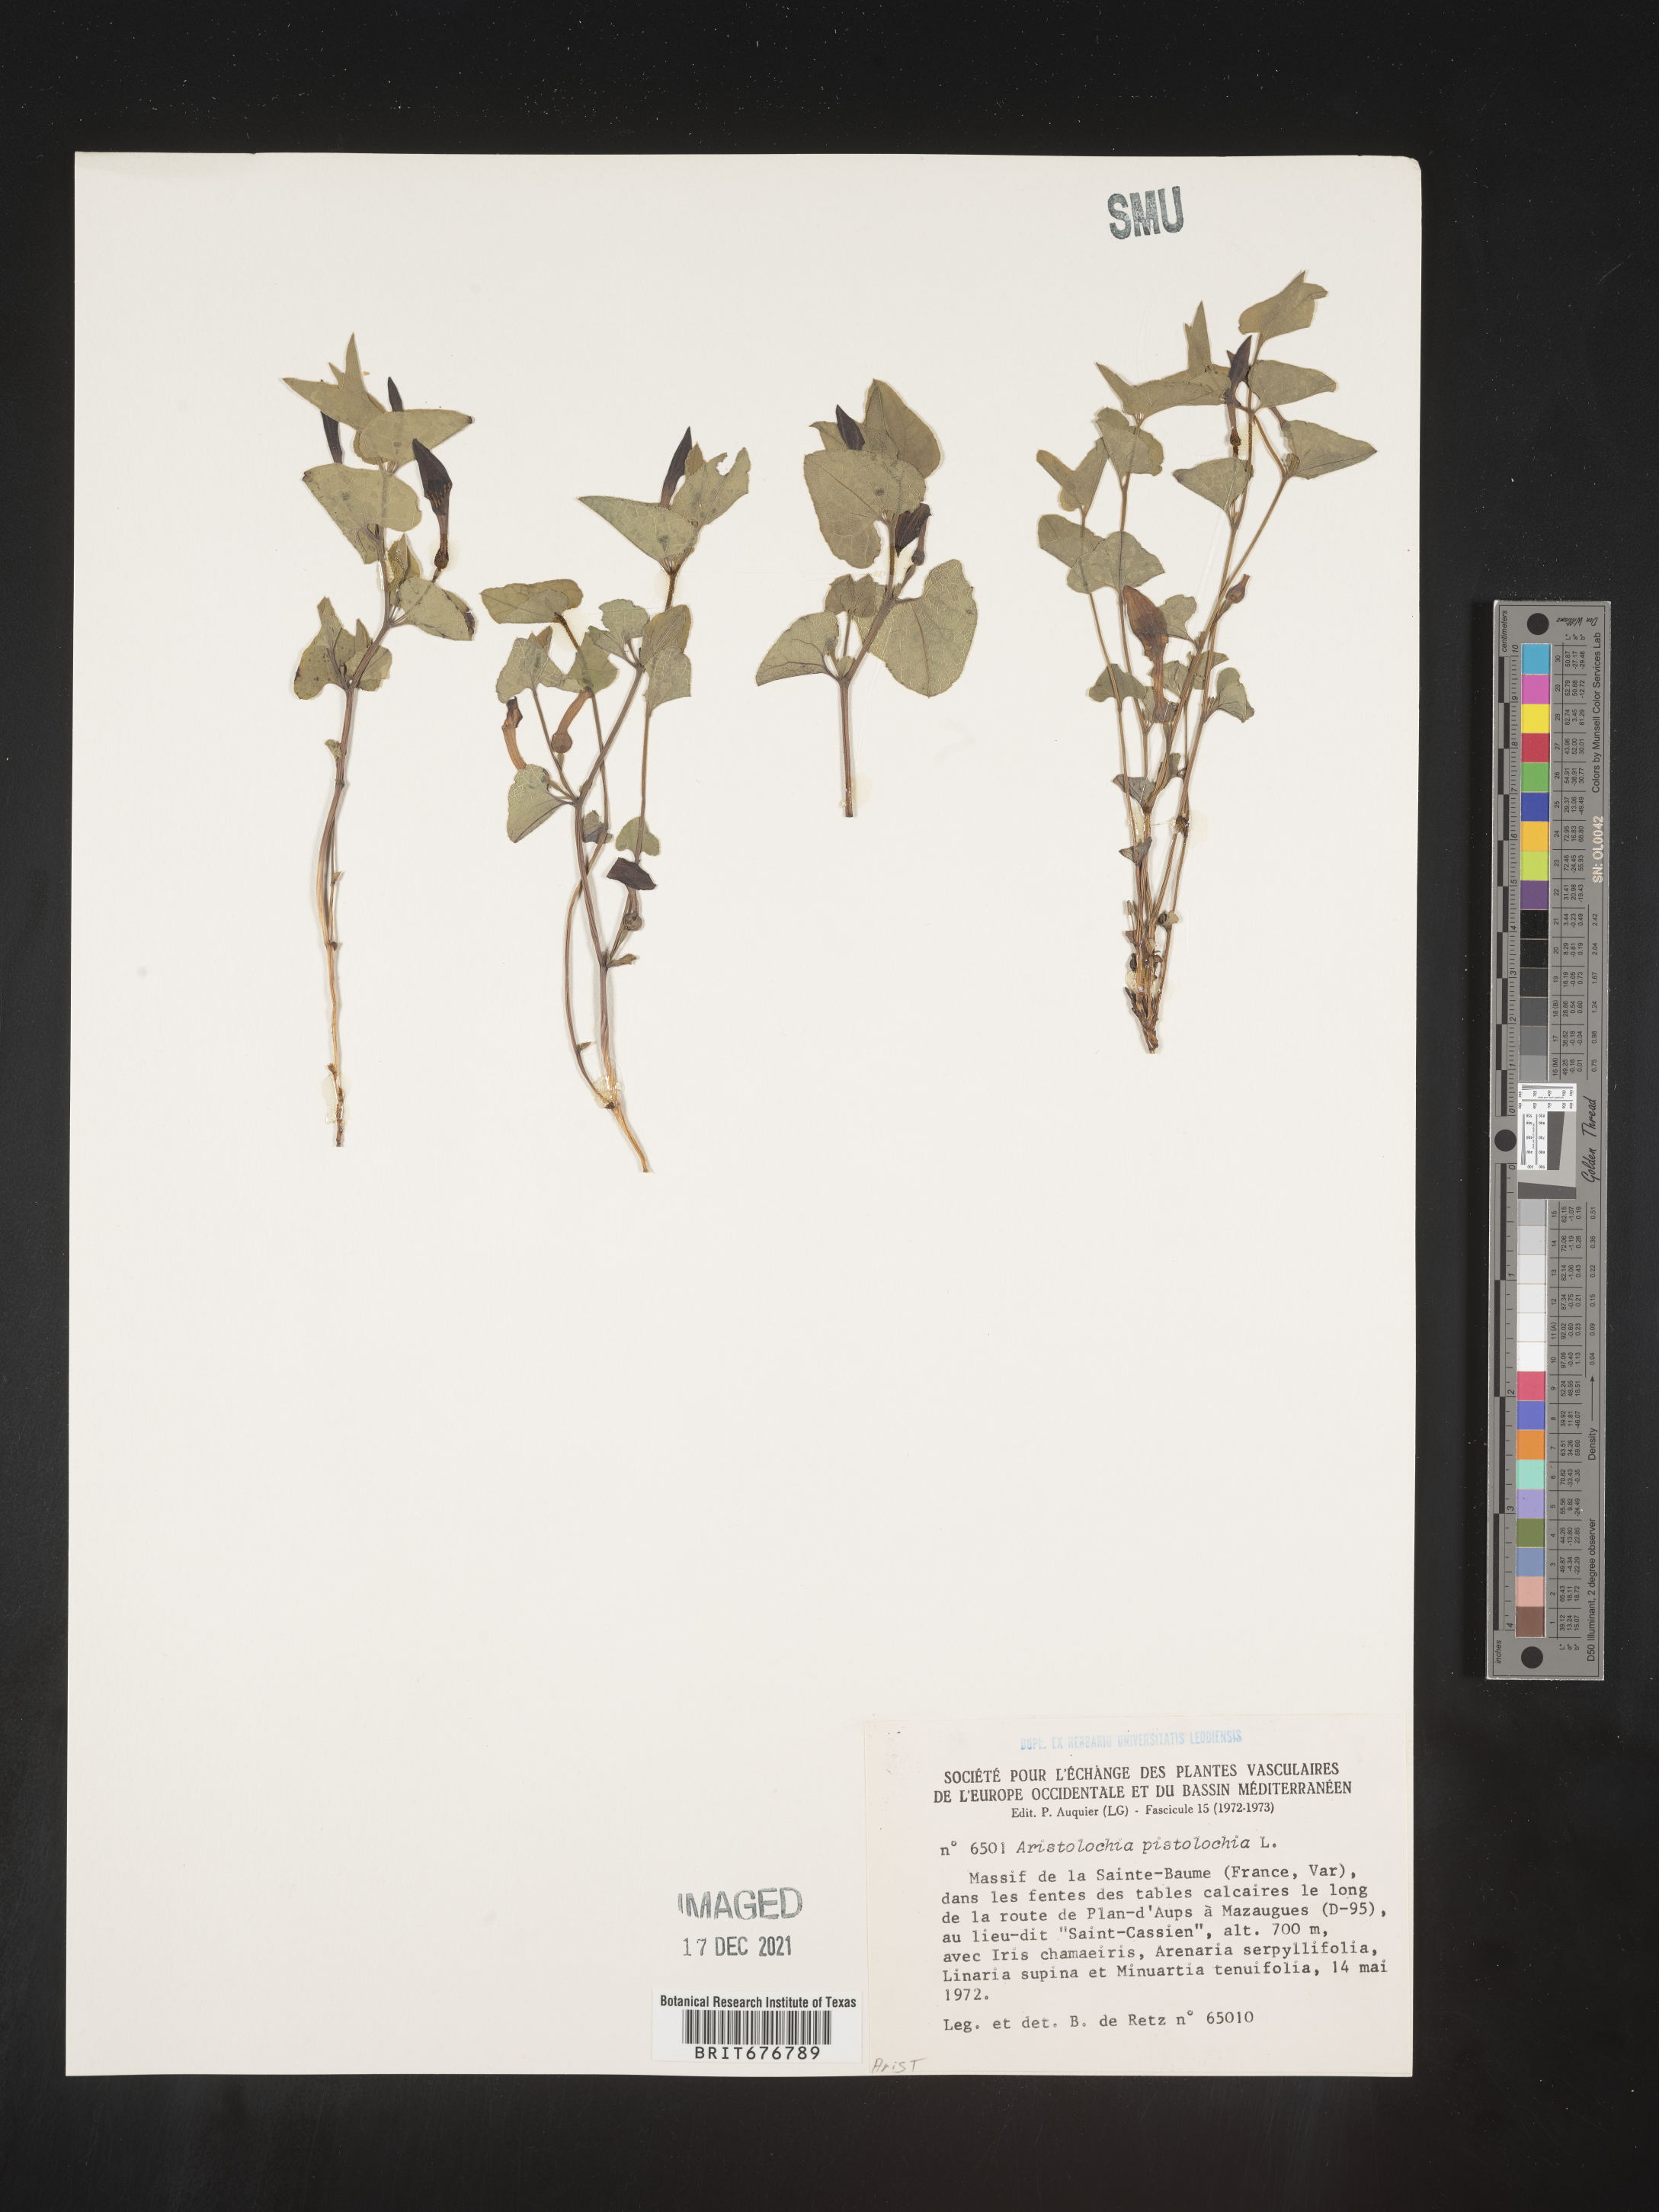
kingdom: Plantae
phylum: Tracheophyta
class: Magnoliopsida
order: Piperales
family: Aristolochiaceae
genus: Aristolochia
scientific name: Aristolochia
